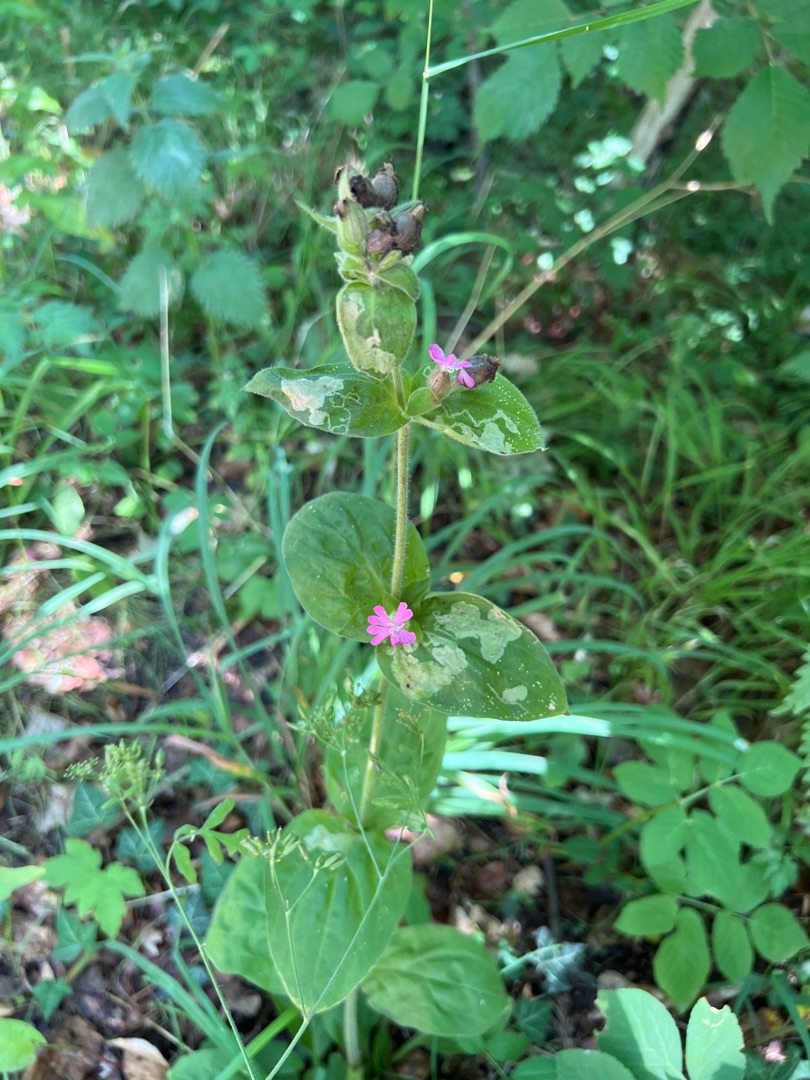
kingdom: Plantae
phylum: Tracheophyta
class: Magnoliopsida
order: Caryophyllales
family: Caryophyllaceae
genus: Silene
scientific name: Silene dioica
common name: Dagpragtstjerne
